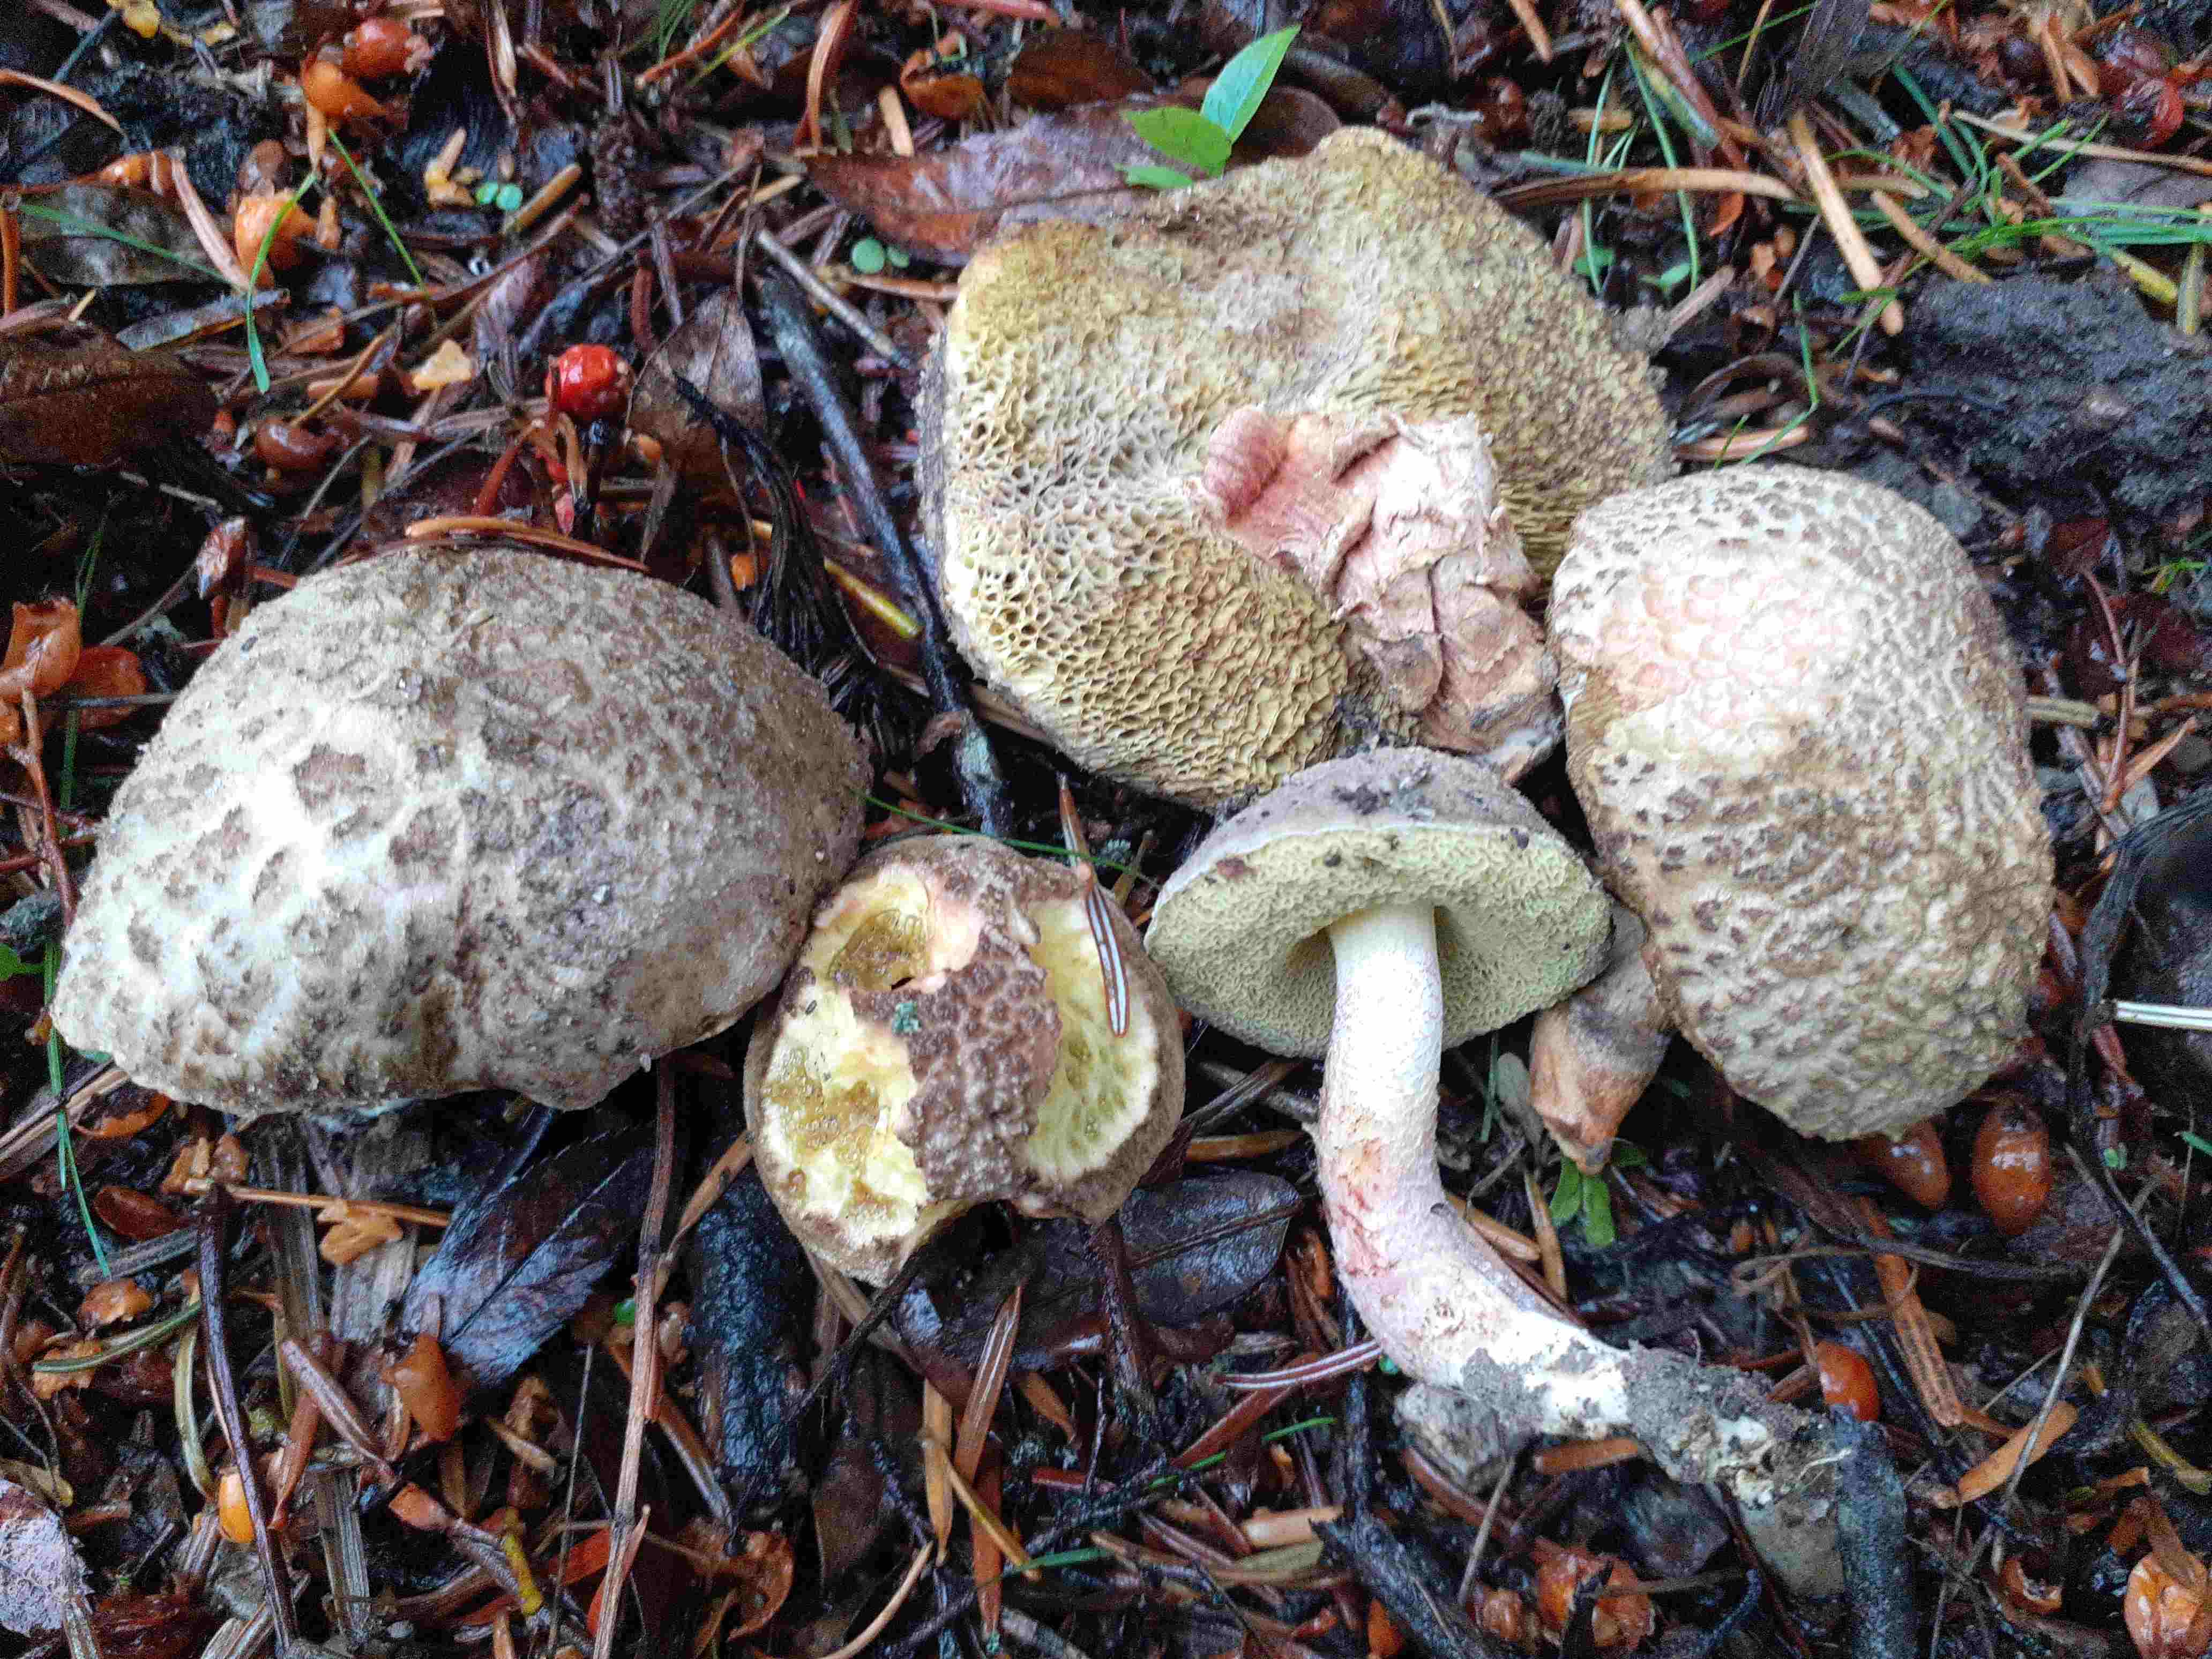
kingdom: Fungi
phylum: Basidiomycota
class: Agaricomycetes
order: Boletales
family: Boletaceae
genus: Xerocomellus
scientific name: Xerocomellus porosporus
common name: hvidsprukken rørhat
